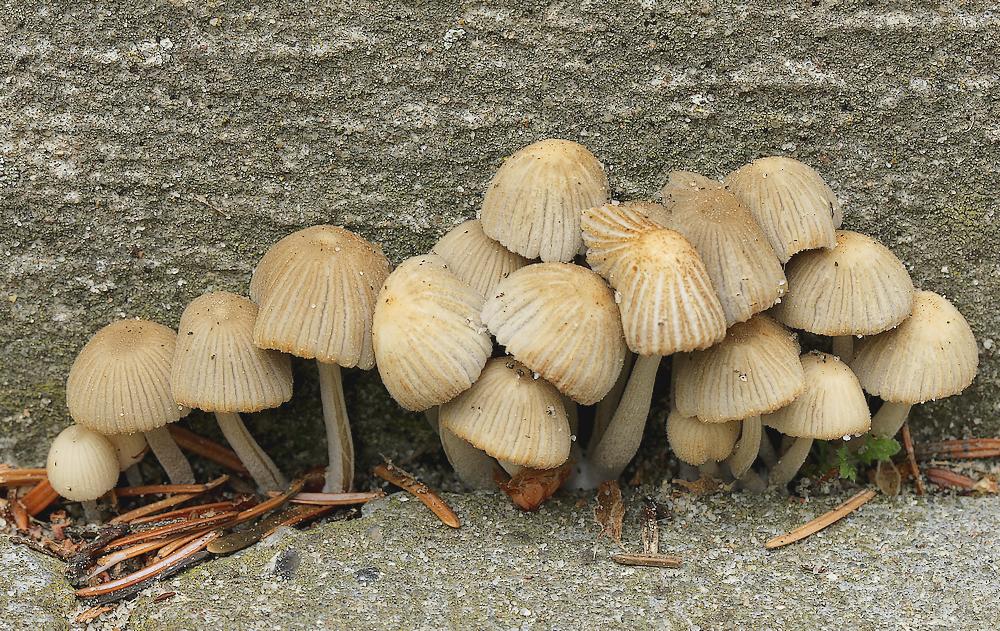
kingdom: Fungi
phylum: Basidiomycota
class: Agaricomycetes
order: Agaricales
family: Psathyrellaceae
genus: Coprinellus
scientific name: Coprinellus disseminatus
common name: bredsået blækhat
